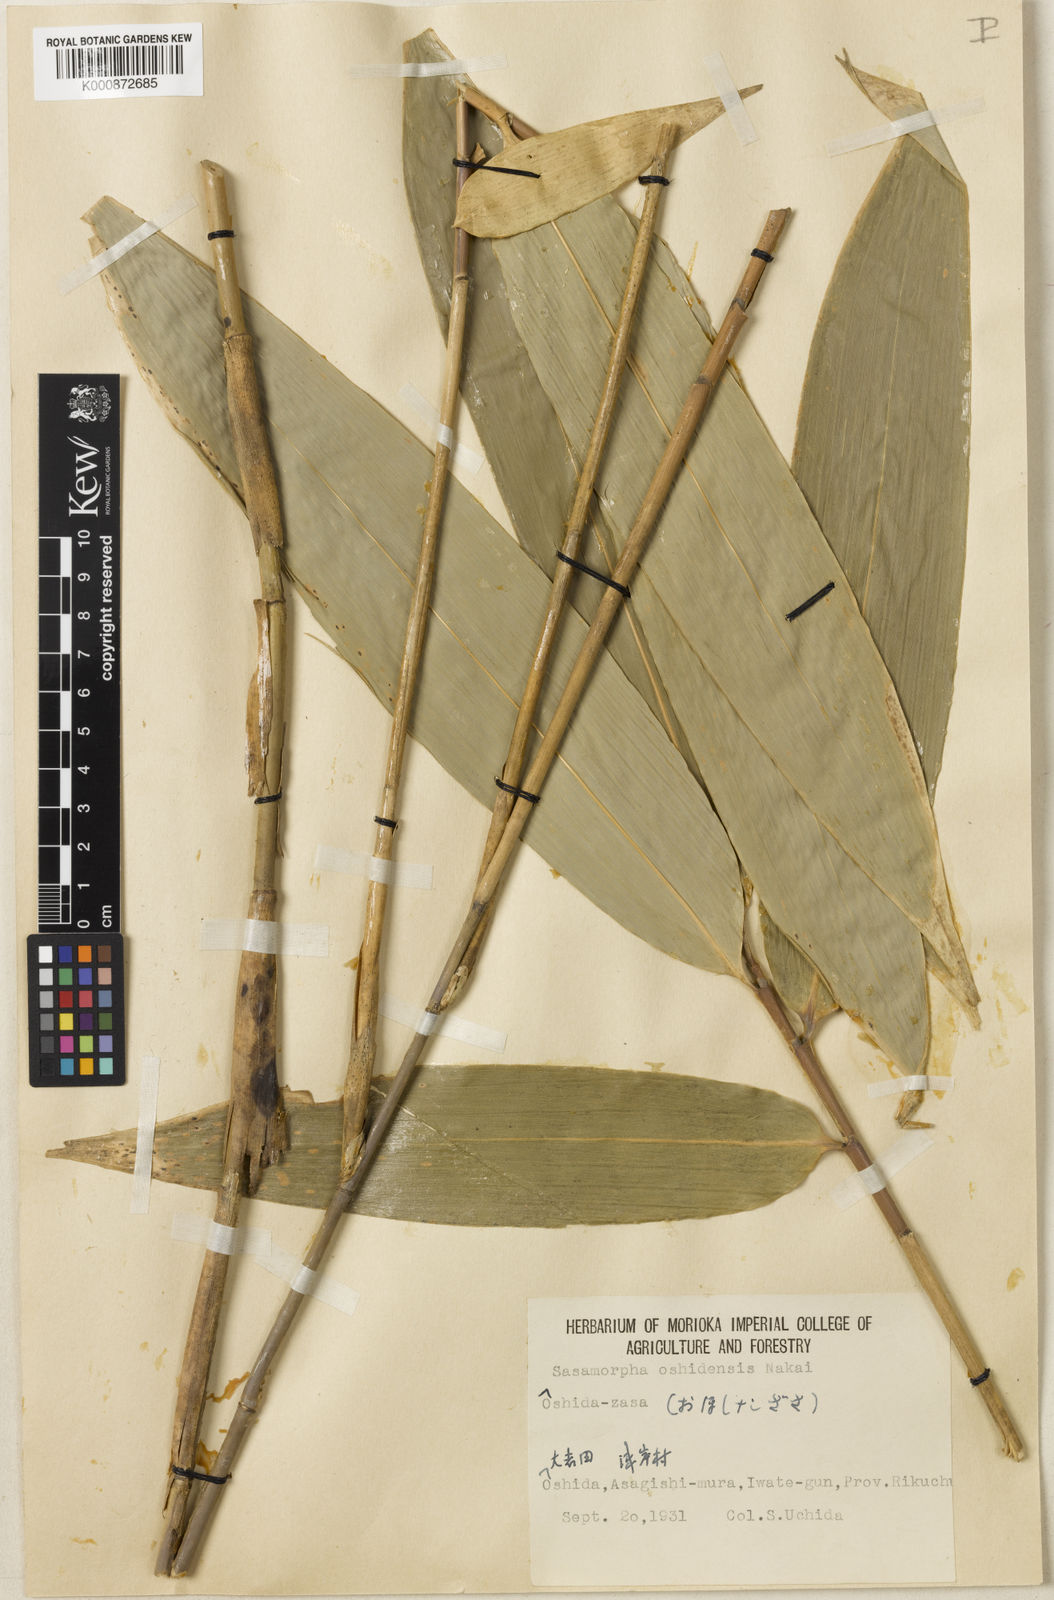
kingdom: Plantae
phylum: Tracheophyta
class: Liliopsida
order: Poales
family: Poaceae
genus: Sasamorpha
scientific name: Sasamorpha oshidensis
